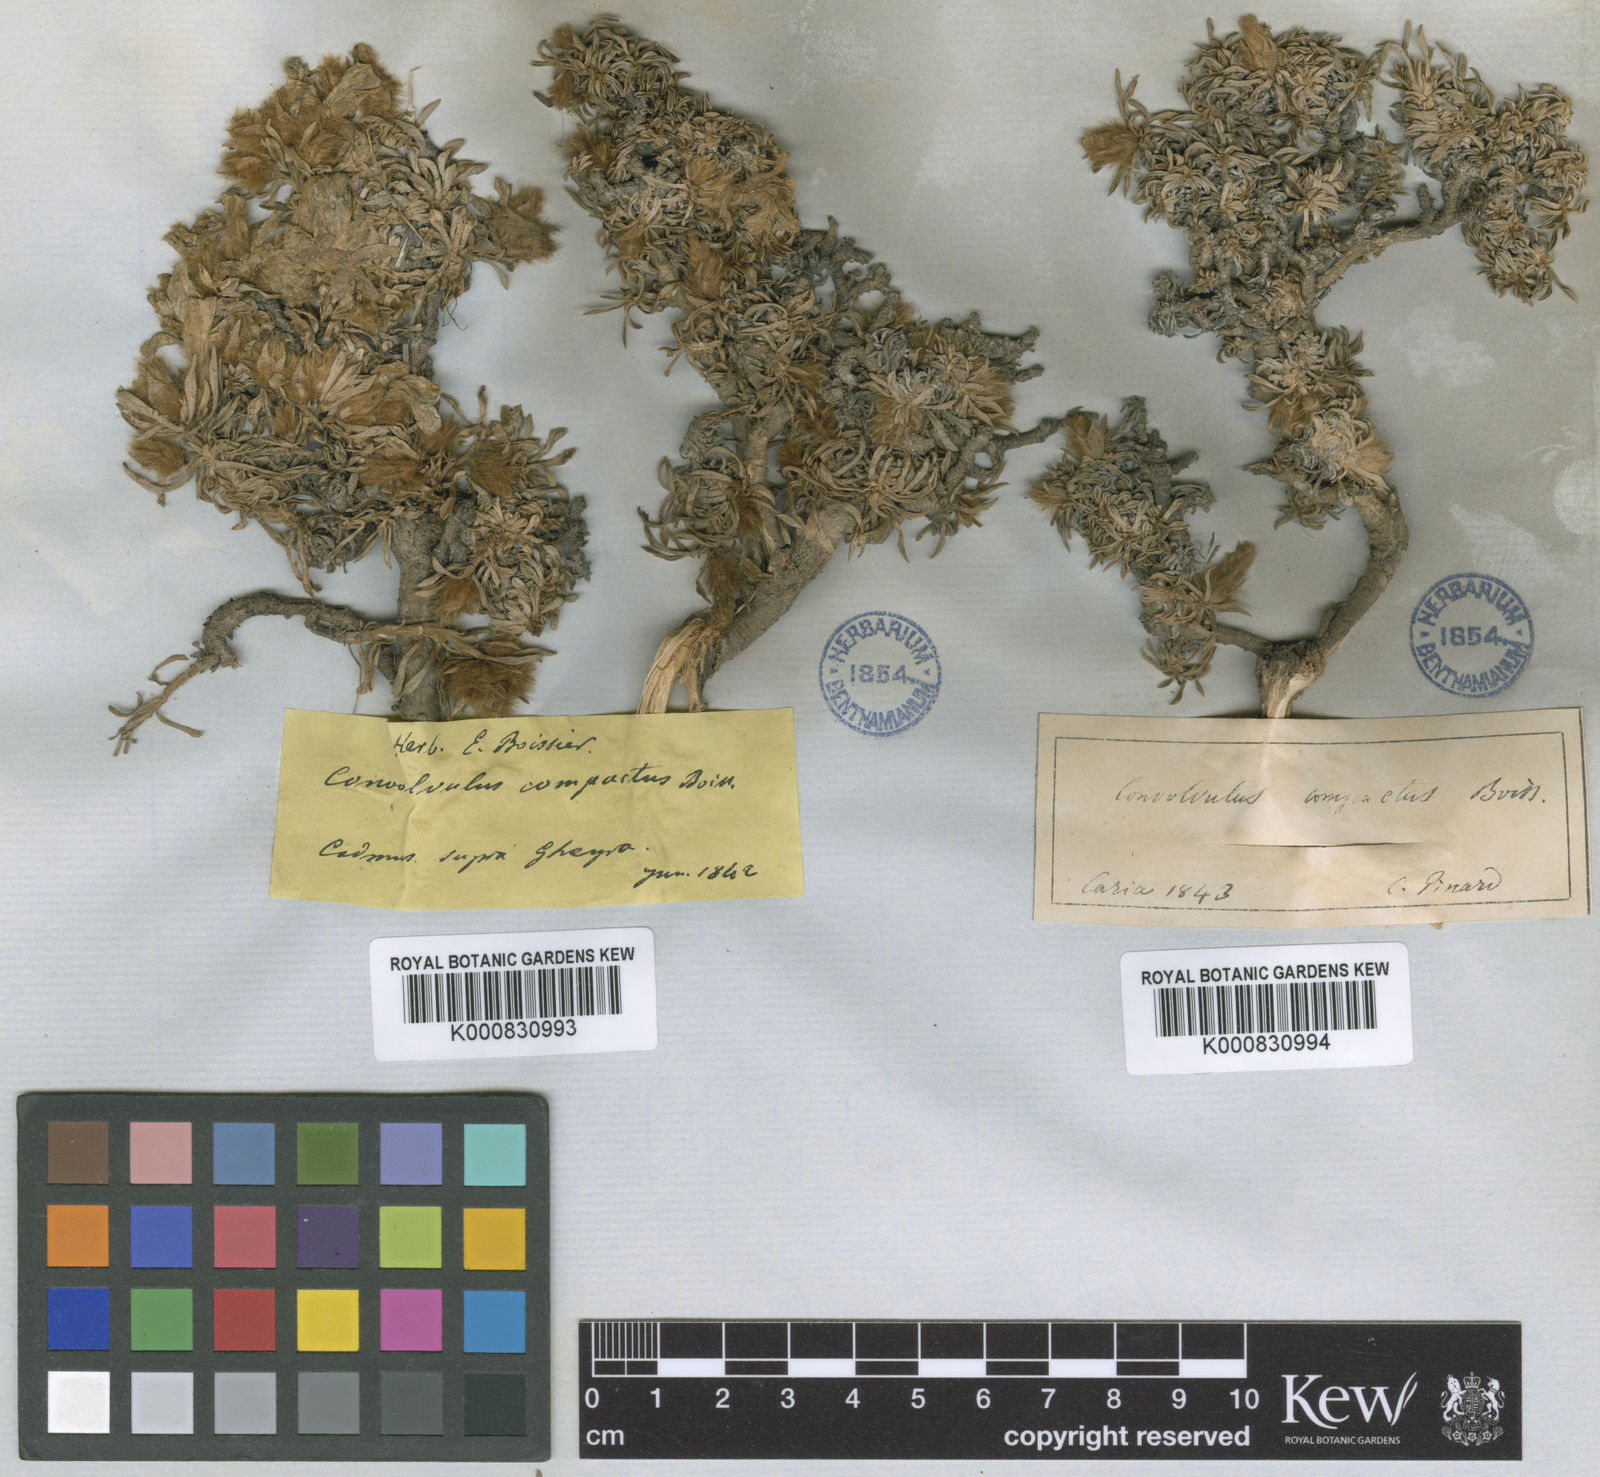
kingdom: Plantae
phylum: Tracheophyta
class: Magnoliopsida
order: Solanales
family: Convolvulaceae
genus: Convolvulus
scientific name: Convolvulus boissieri
